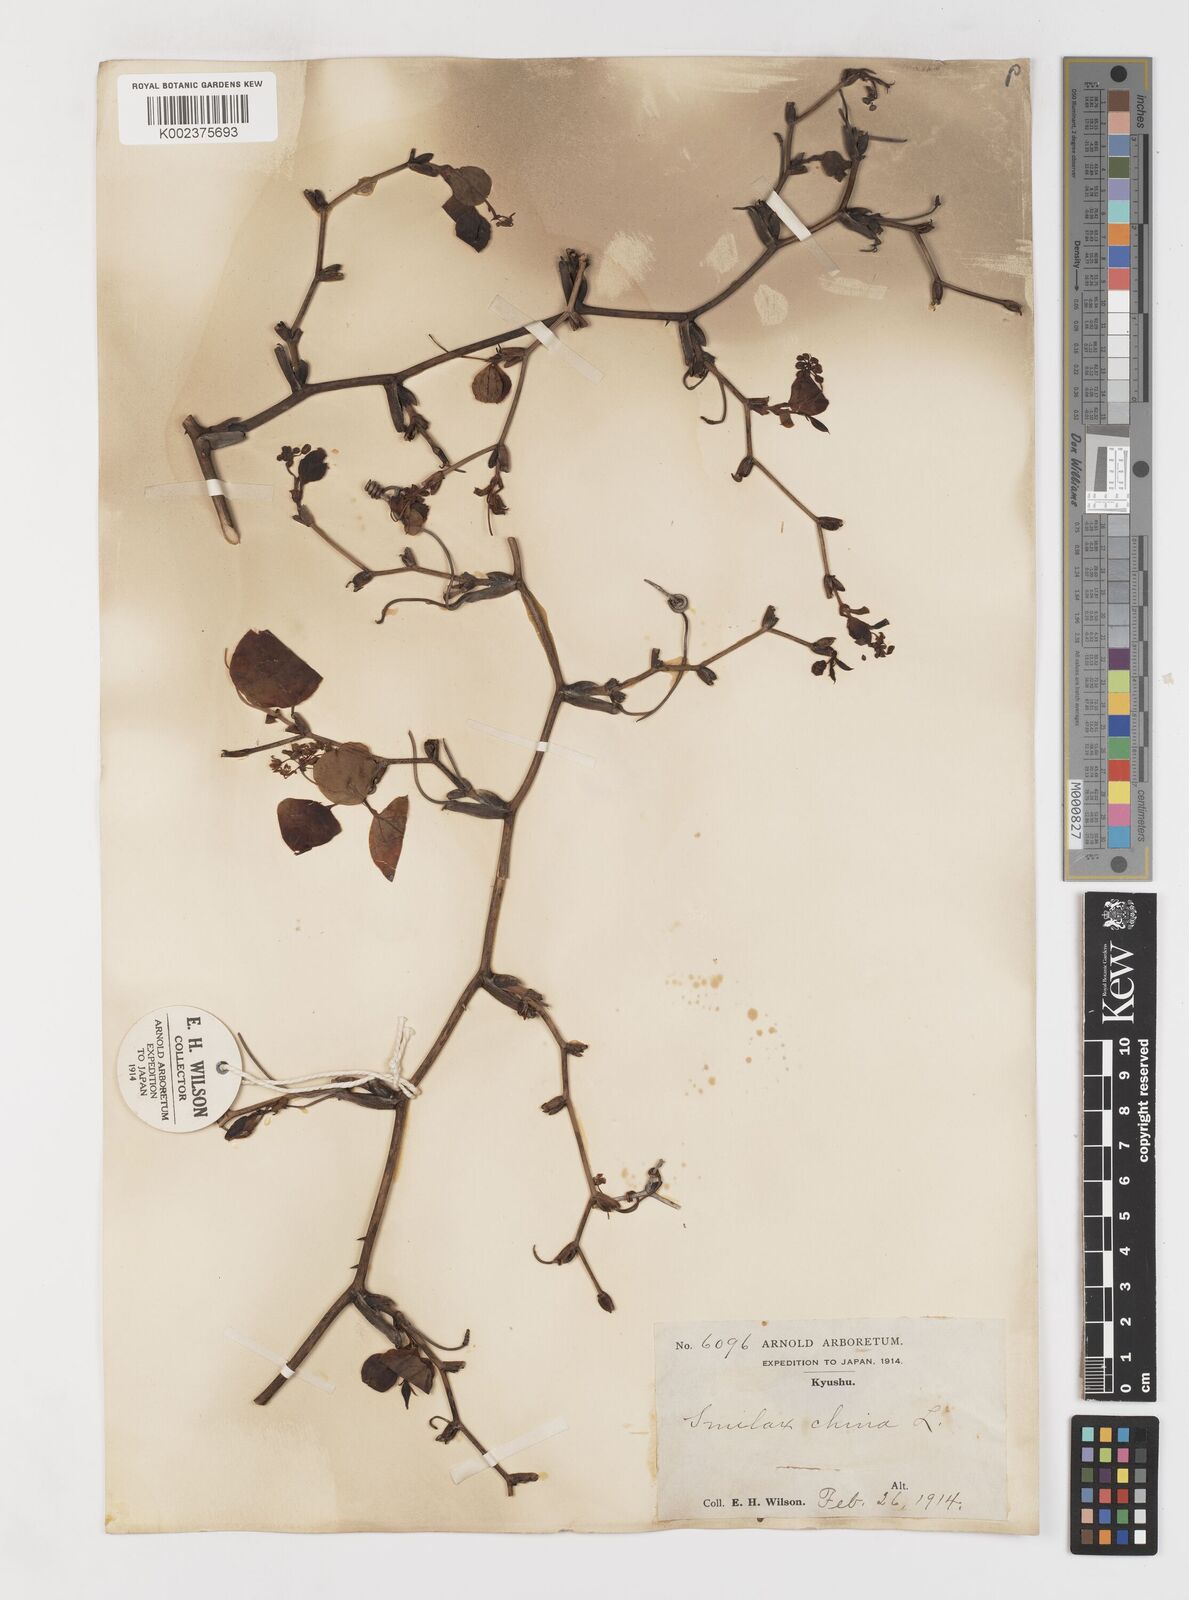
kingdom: Plantae
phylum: Tracheophyta
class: Liliopsida
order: Liliales
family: Smilacaceae
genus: Smilax
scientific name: Smilax china
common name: Chinaroot
